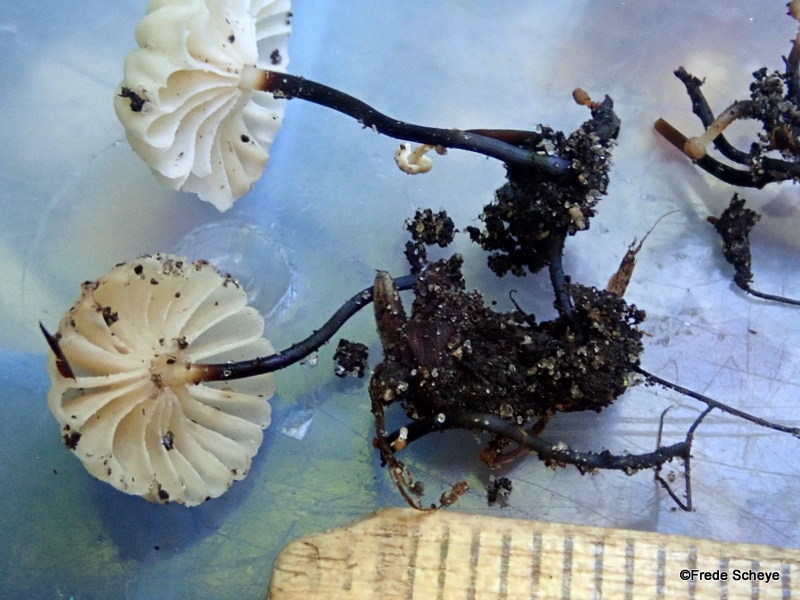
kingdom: Fungi
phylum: Basidiomycota
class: Agaricomycetes
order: Agaricales
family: Marasmiaceae
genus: Marasmius
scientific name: Marasmius rotula
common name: hjul-bruskhat
